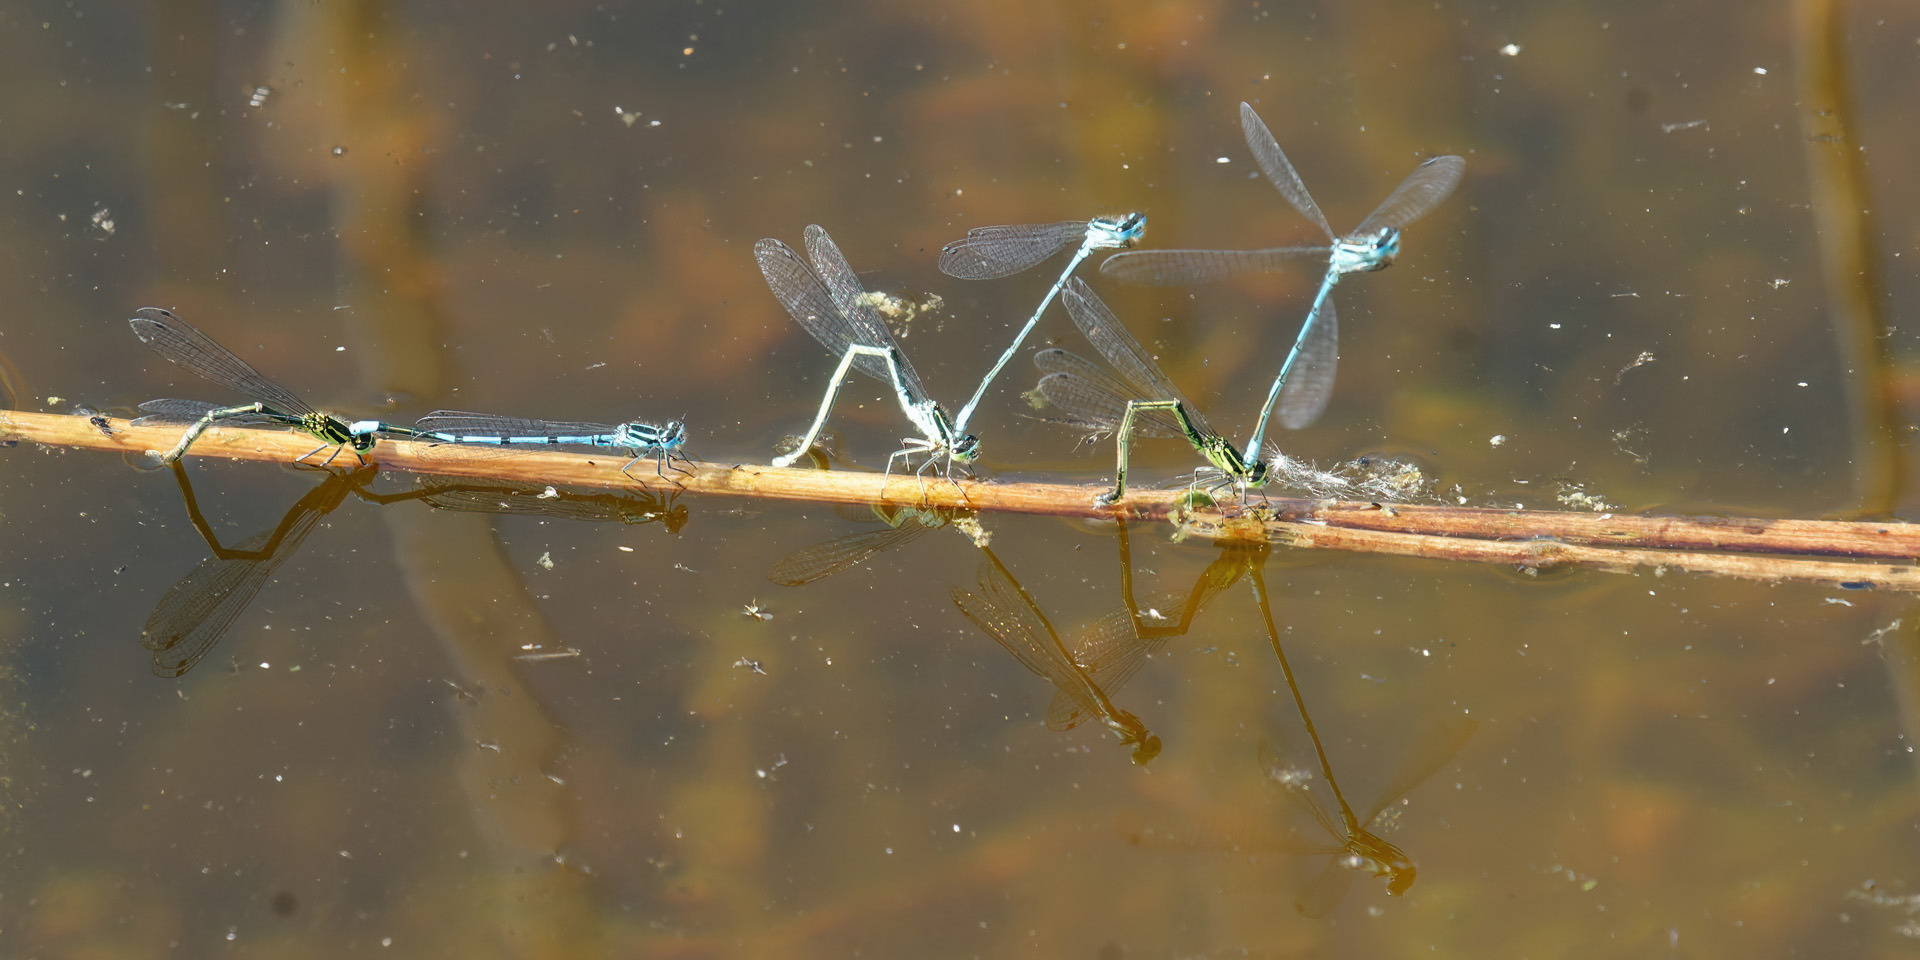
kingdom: Animalia
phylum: Arthropoda
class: Insecta
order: Odonata
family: Coenagrionidae
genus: Coenagrion
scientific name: Coenagrion puella
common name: Hestesko-vandnymfe
